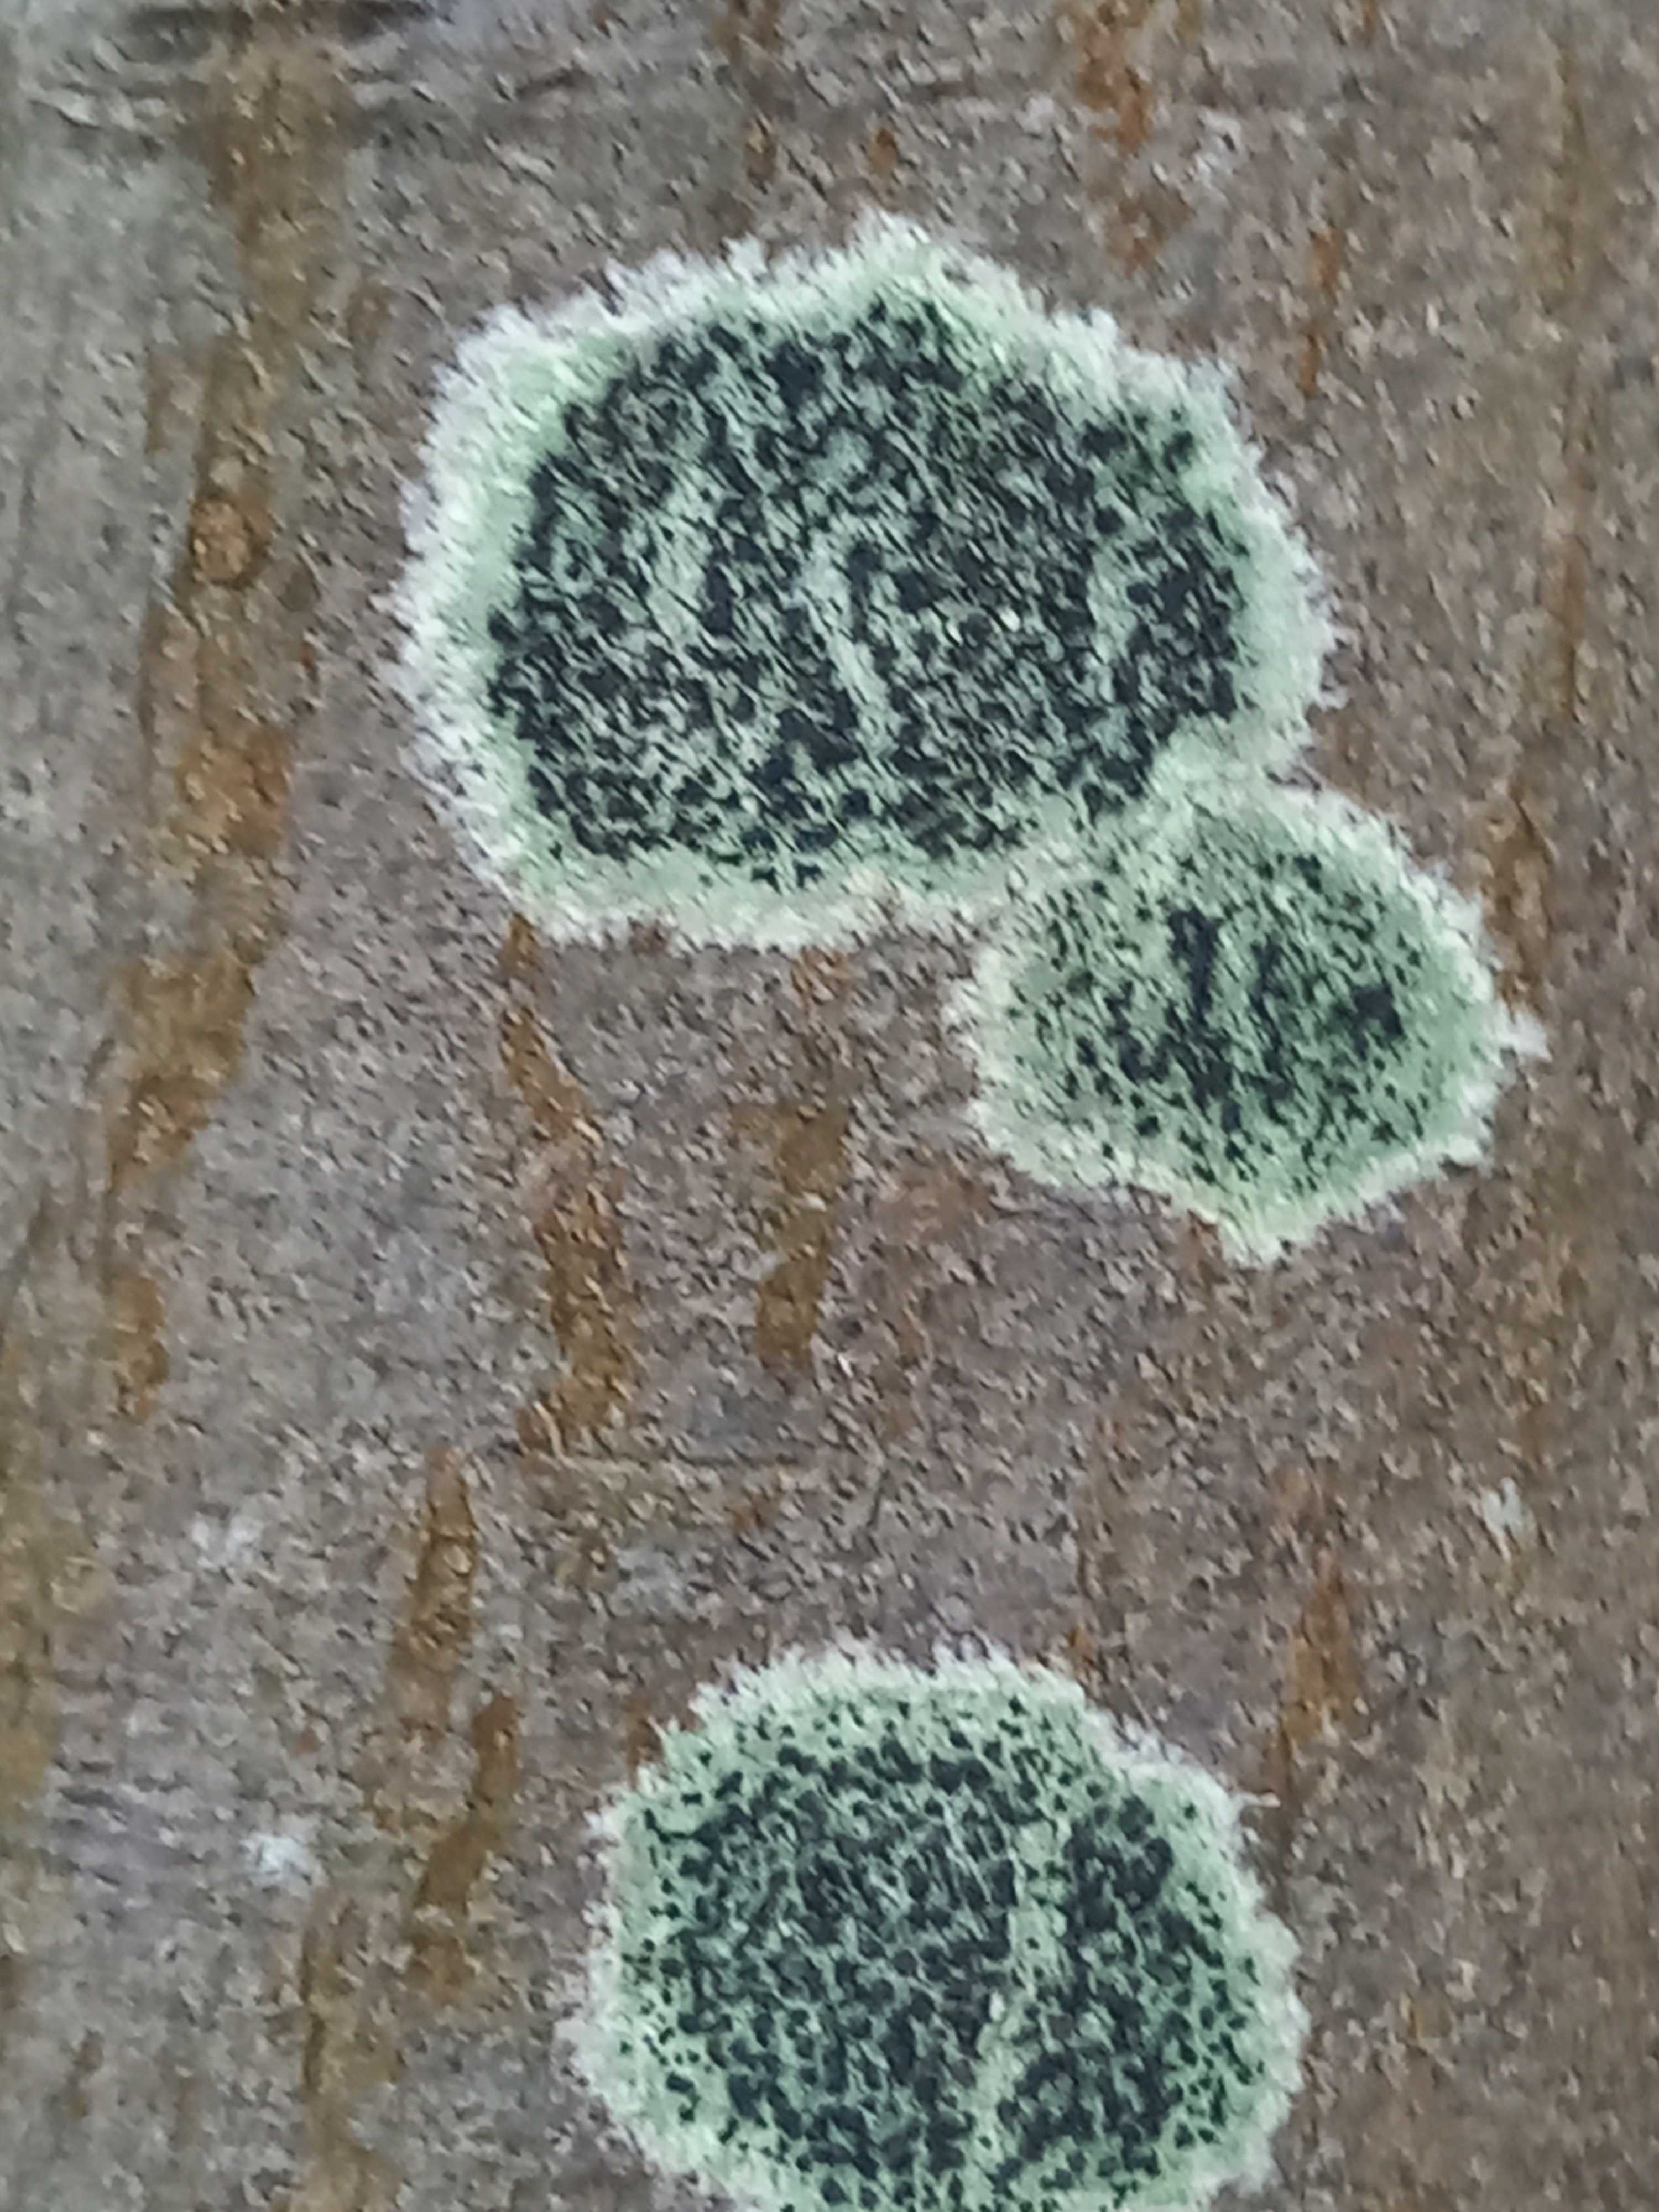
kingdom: Fungi
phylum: Ascomycota
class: Lecanoromycetes
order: Lecanorales
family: Lecanoraceae
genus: Lecidella
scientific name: Lecidella elaeochroma
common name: grågrøn skivelav
